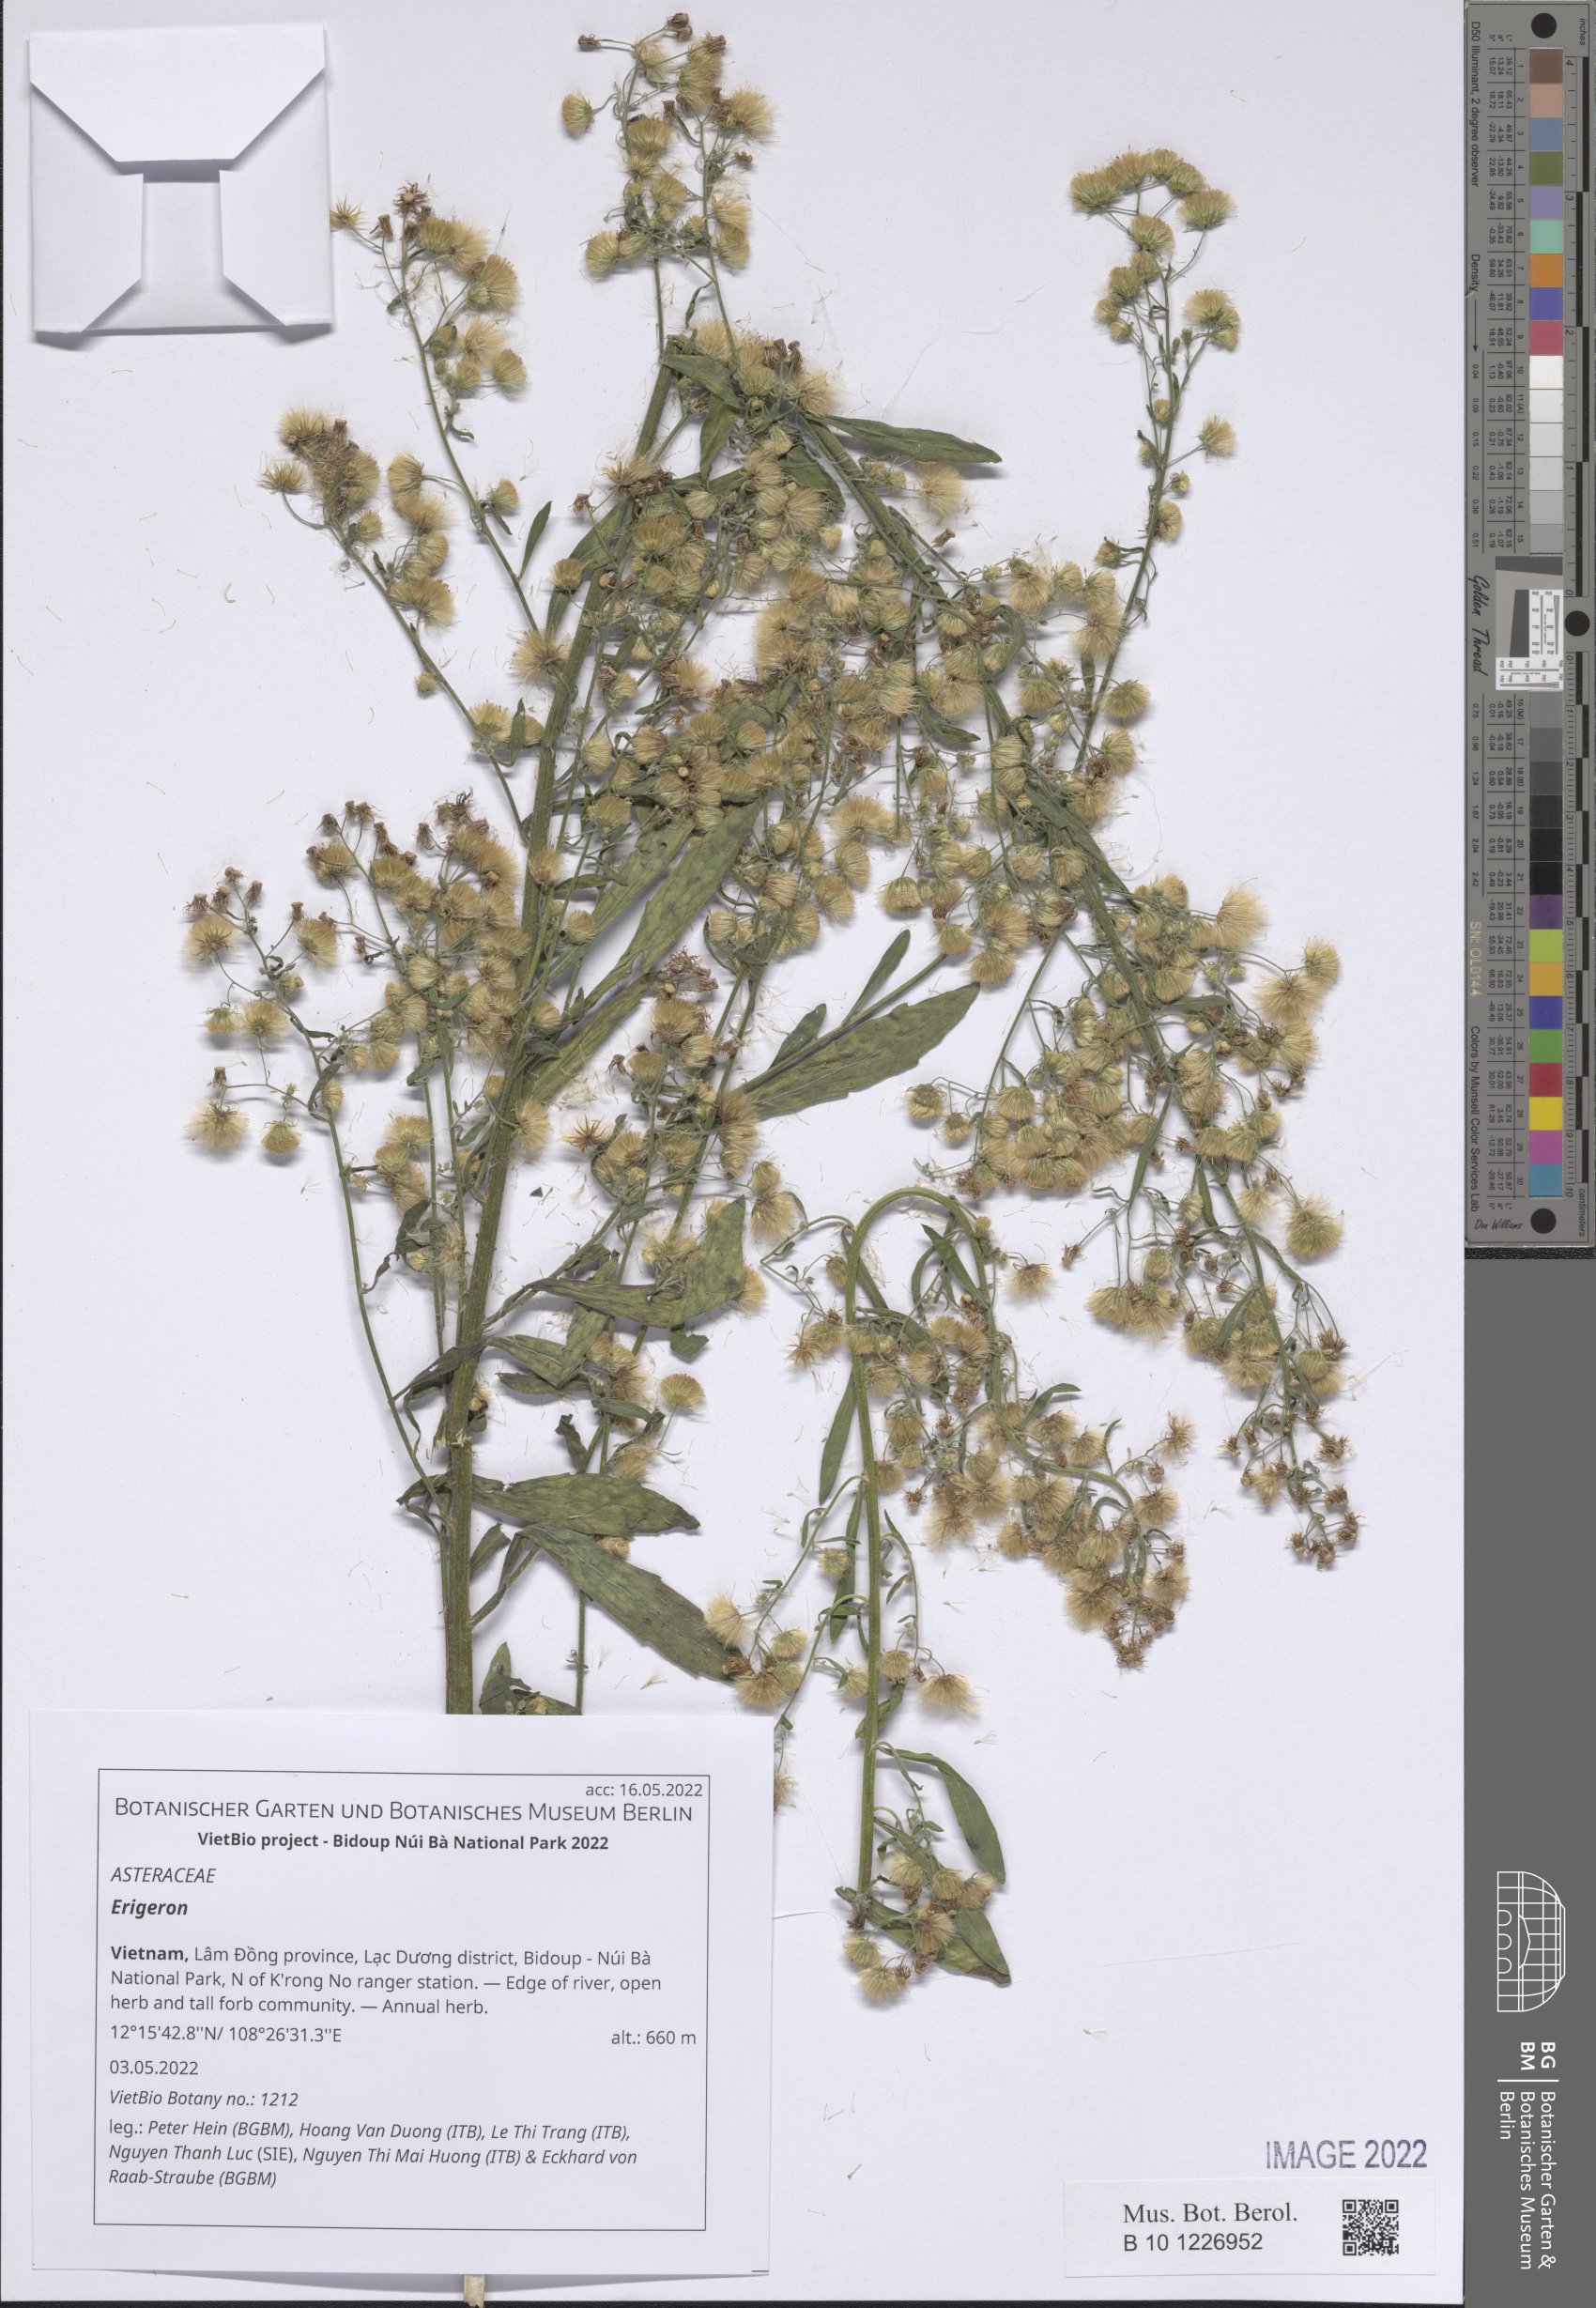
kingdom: Plantae
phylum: Tracheophyta
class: Magnoliopsida
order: Asterales
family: Asteraceae
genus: Erigeron
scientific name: Erigeron
